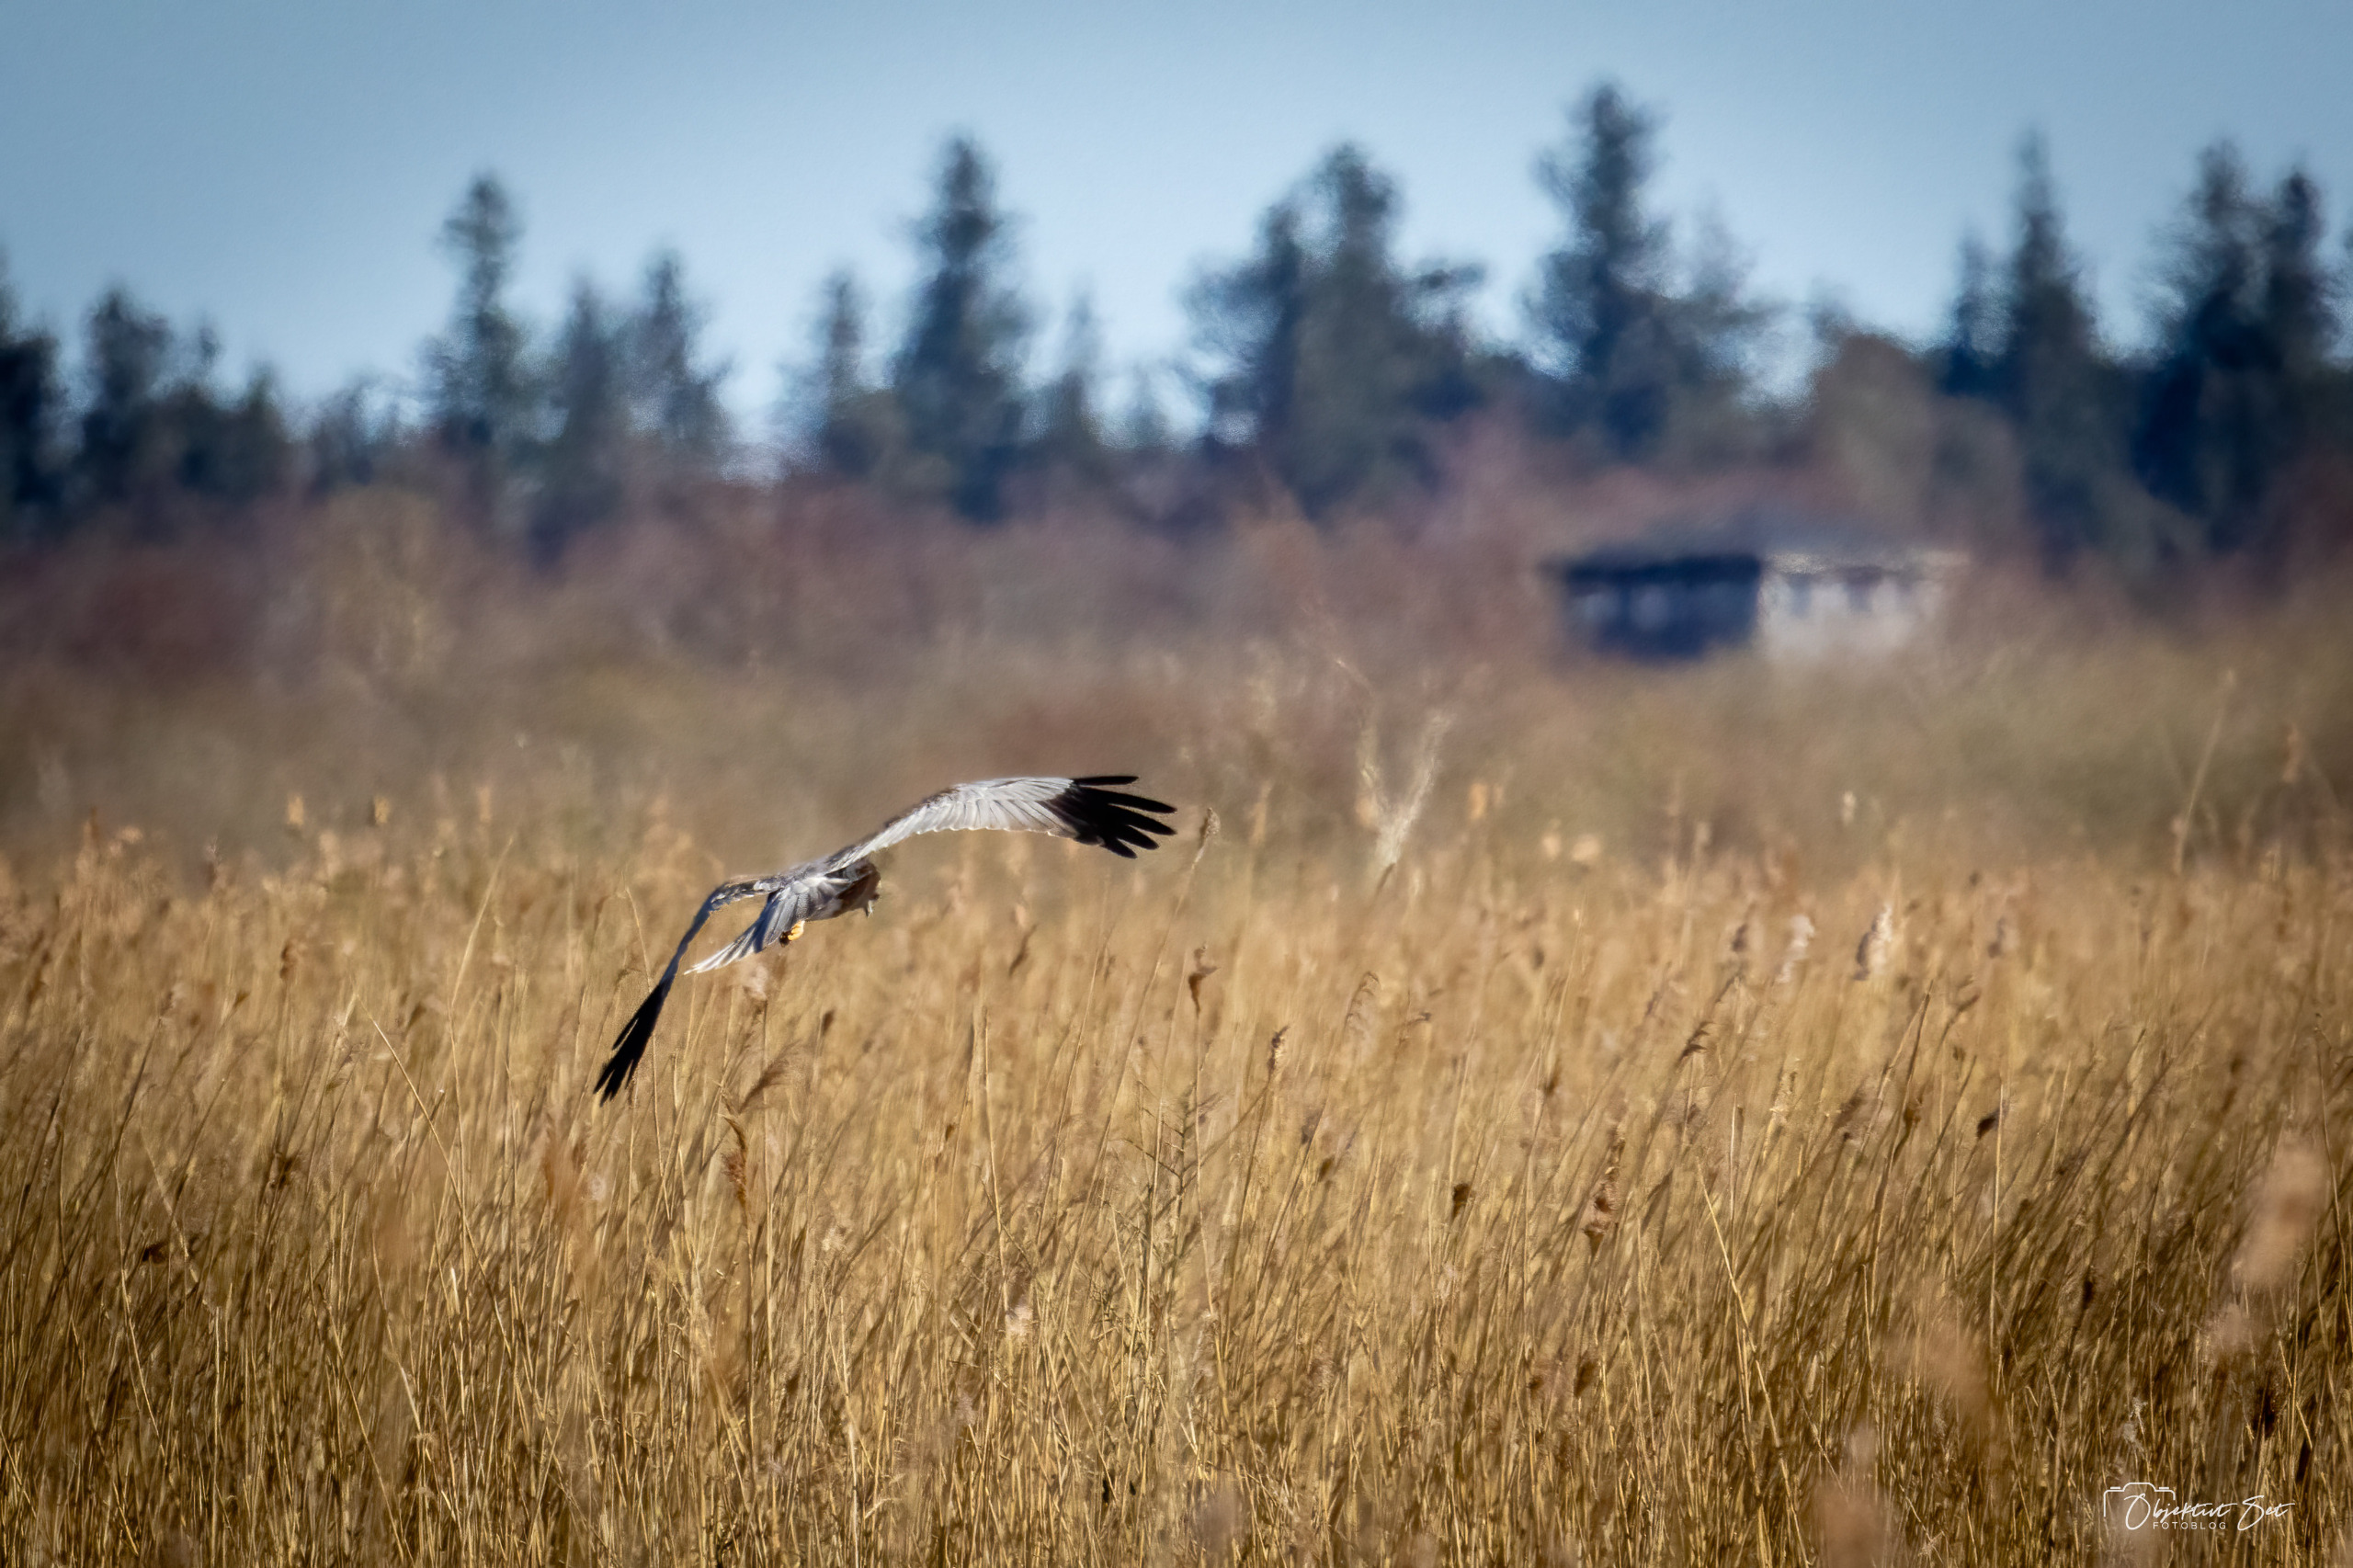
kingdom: Animalia
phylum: Chordata
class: Aves
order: Accipitriformes
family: Accipitridae
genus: Circus
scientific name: Circus aeruginosus
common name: Rørhøg
